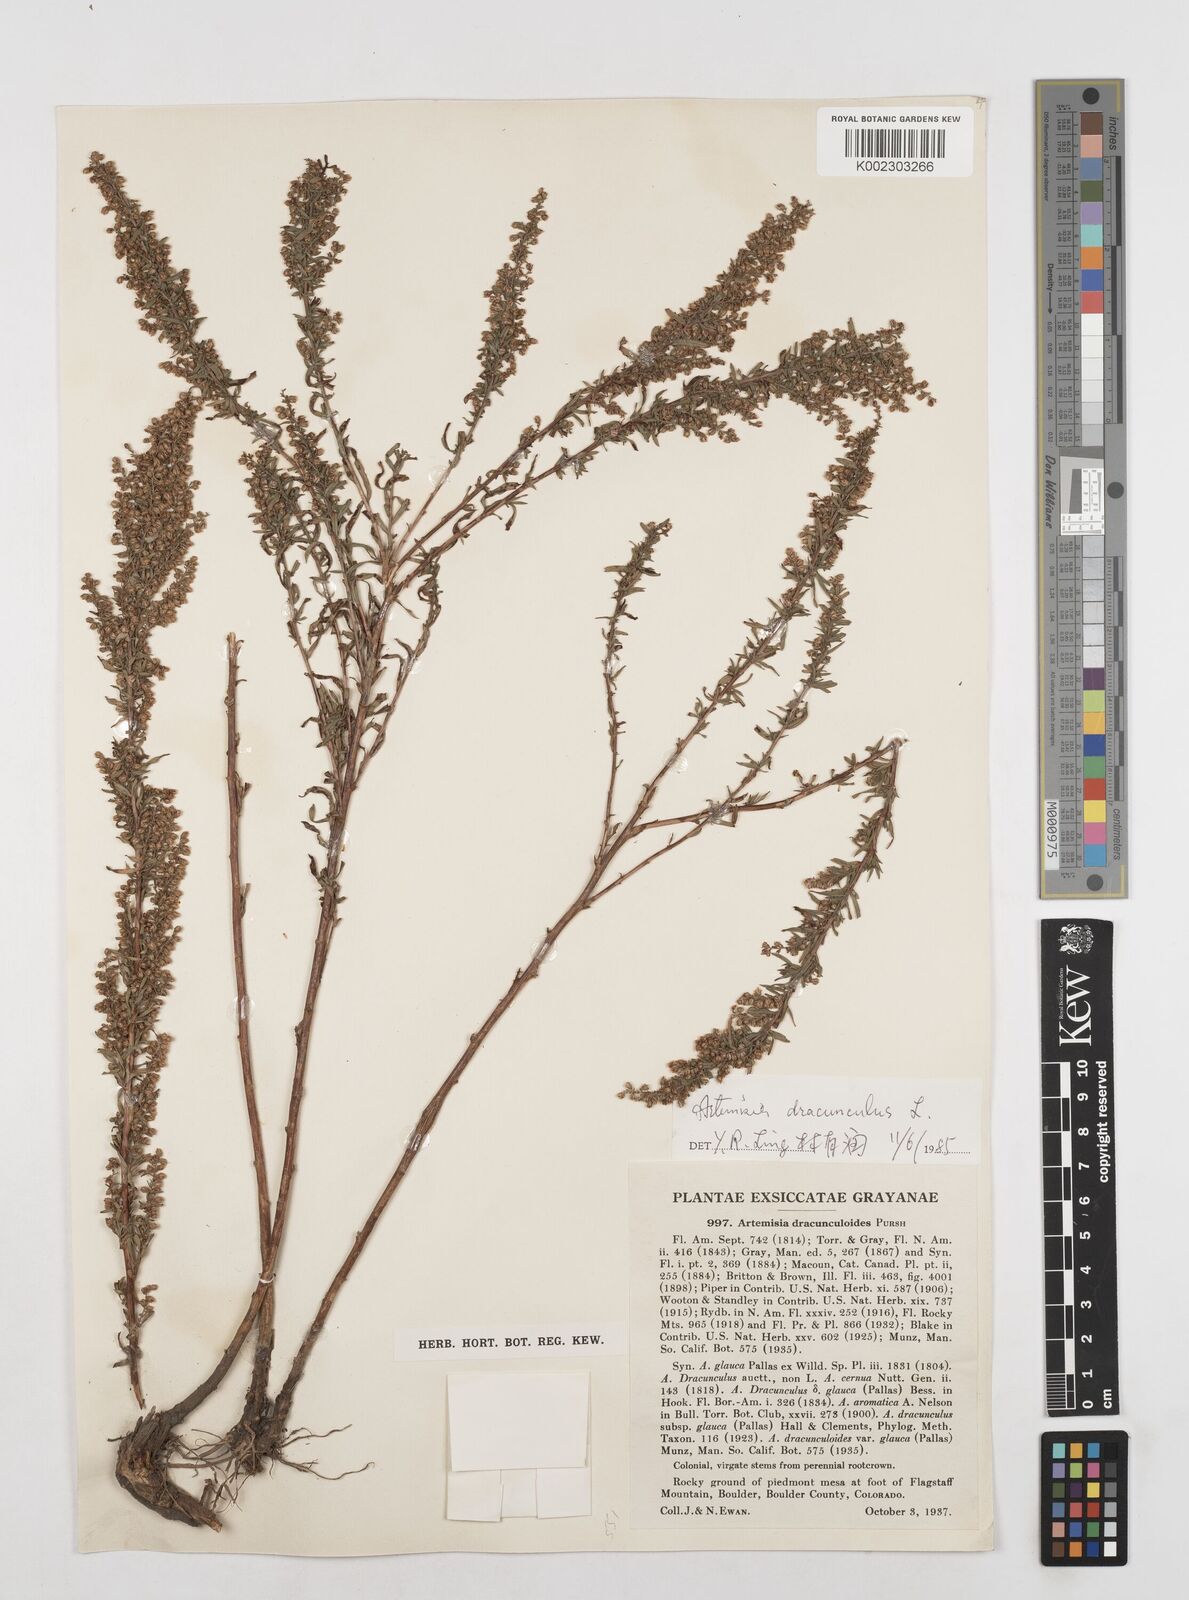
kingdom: Plantae
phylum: Tracheophyta
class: Magnoliopsida
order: Asterales
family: Asteraceae
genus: Artemisia
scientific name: Artemisia dracunculus
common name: Tarragon
